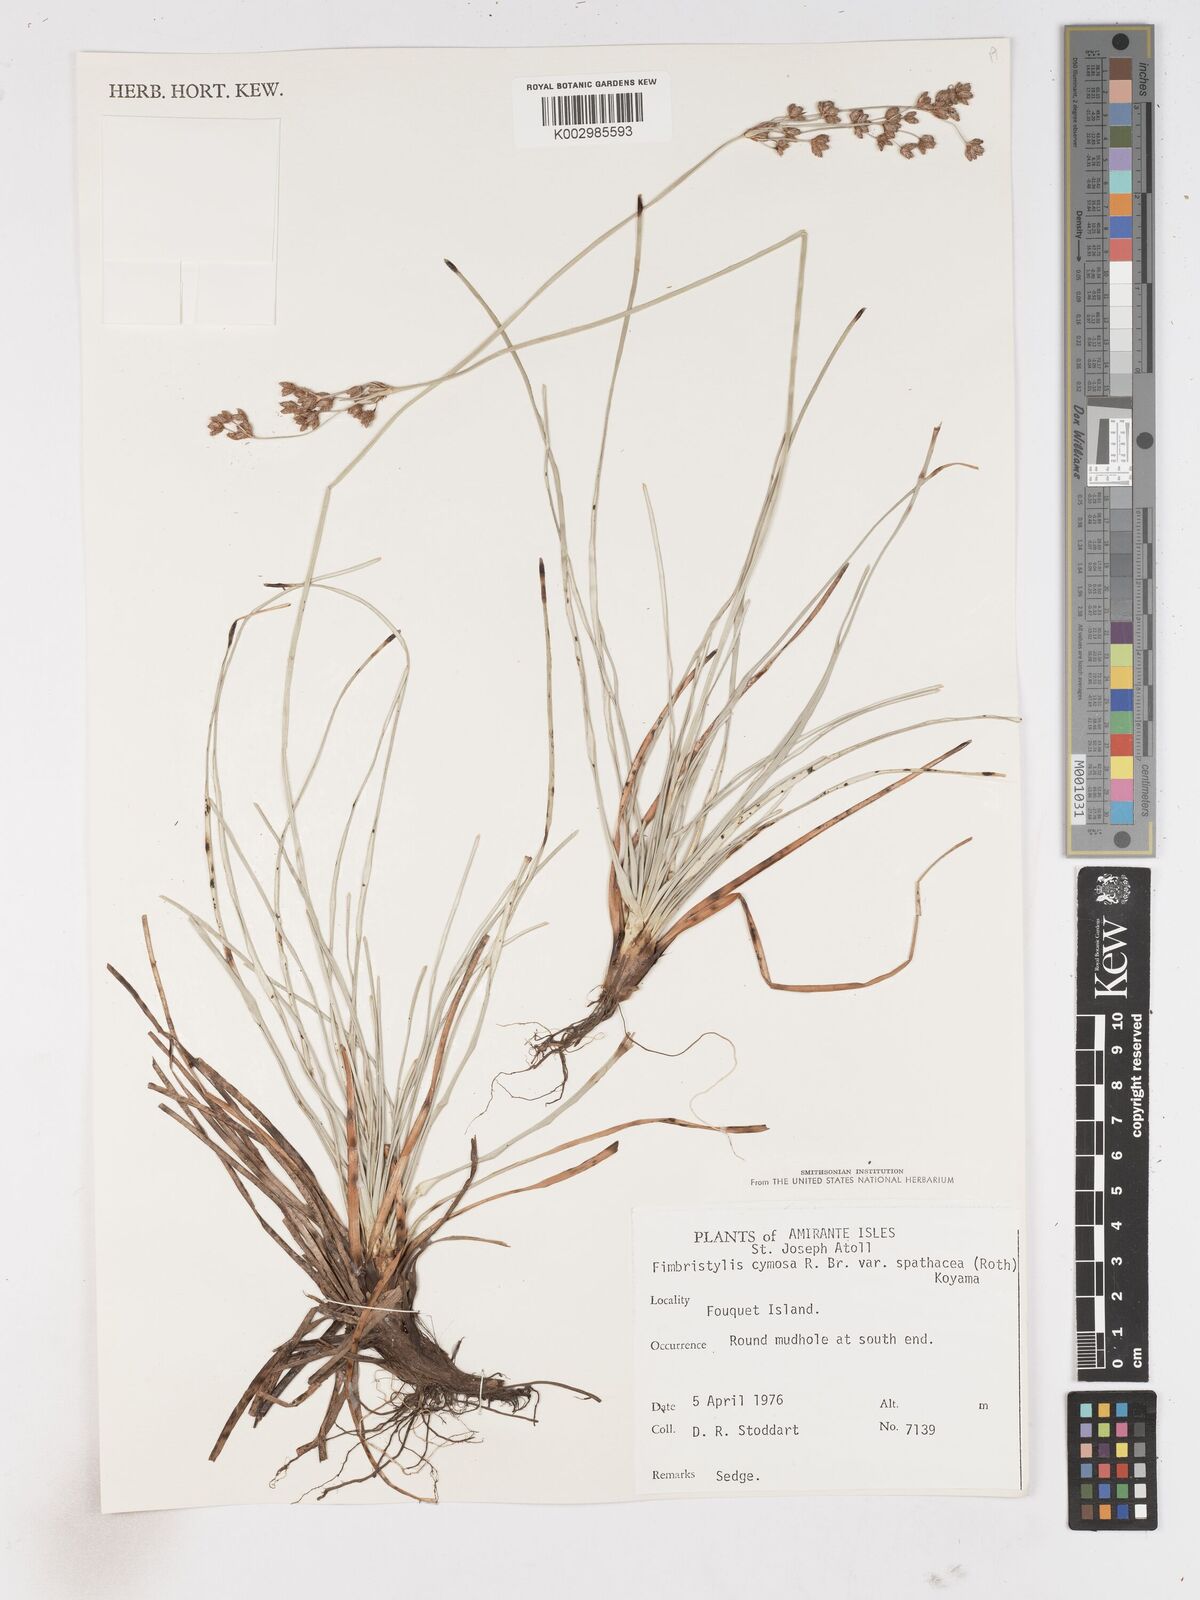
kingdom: Plantae
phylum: Tracheophyta
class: Liliopsida
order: Poales
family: Cyperaceae
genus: Fimbristylis
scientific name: Fimbristylis cymosa
